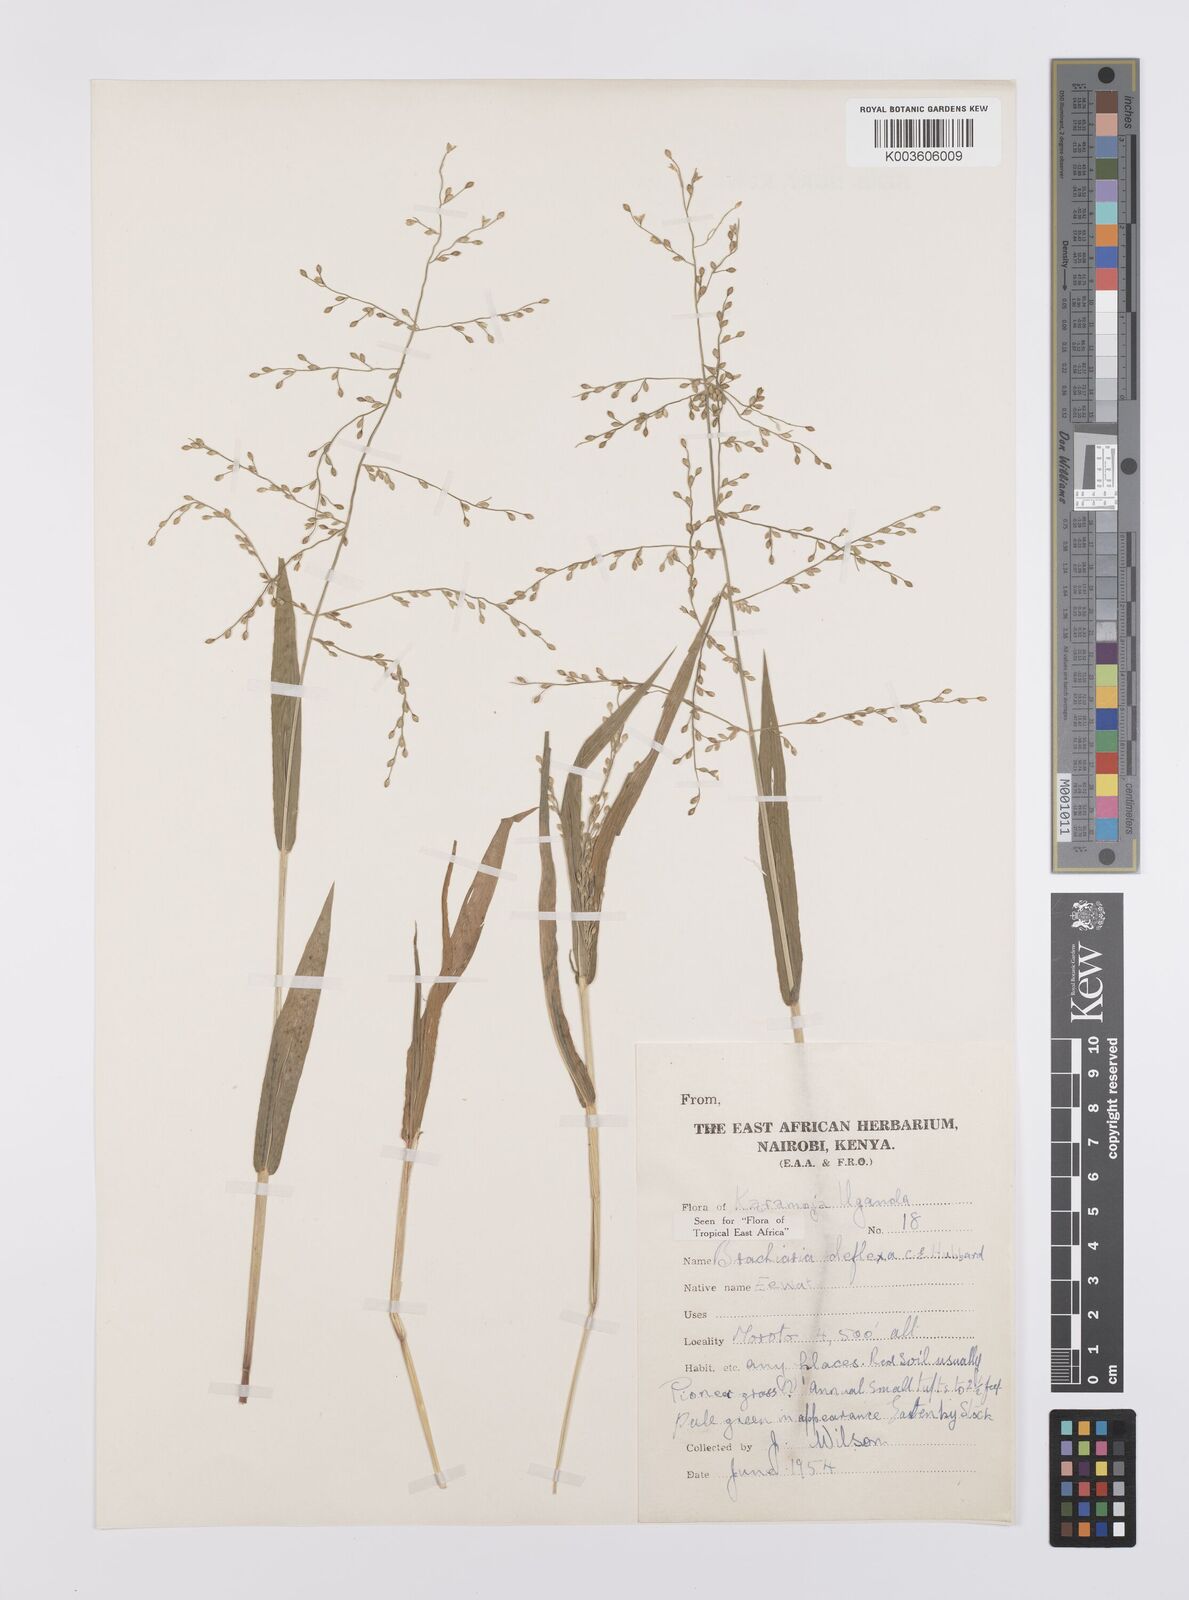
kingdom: Plantae
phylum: Tracheophyta
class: Liliopsida
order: Poales
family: Poaceae
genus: Urochloa
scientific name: Urochloa deflexa
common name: Guinea millet
